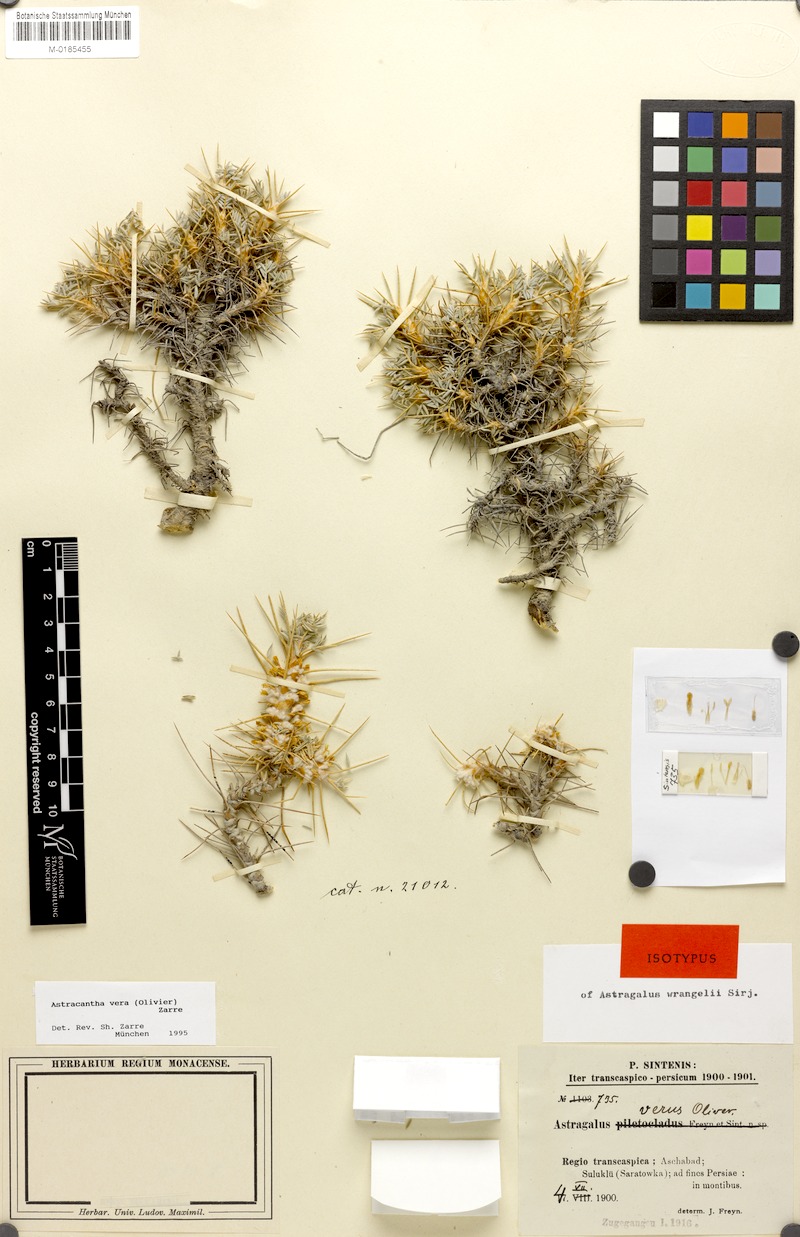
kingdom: Plantae
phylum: Tracheophyta
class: Magnoliopsida
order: Fabales
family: Fabaceae
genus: Astragalus
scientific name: Astragalus verus
